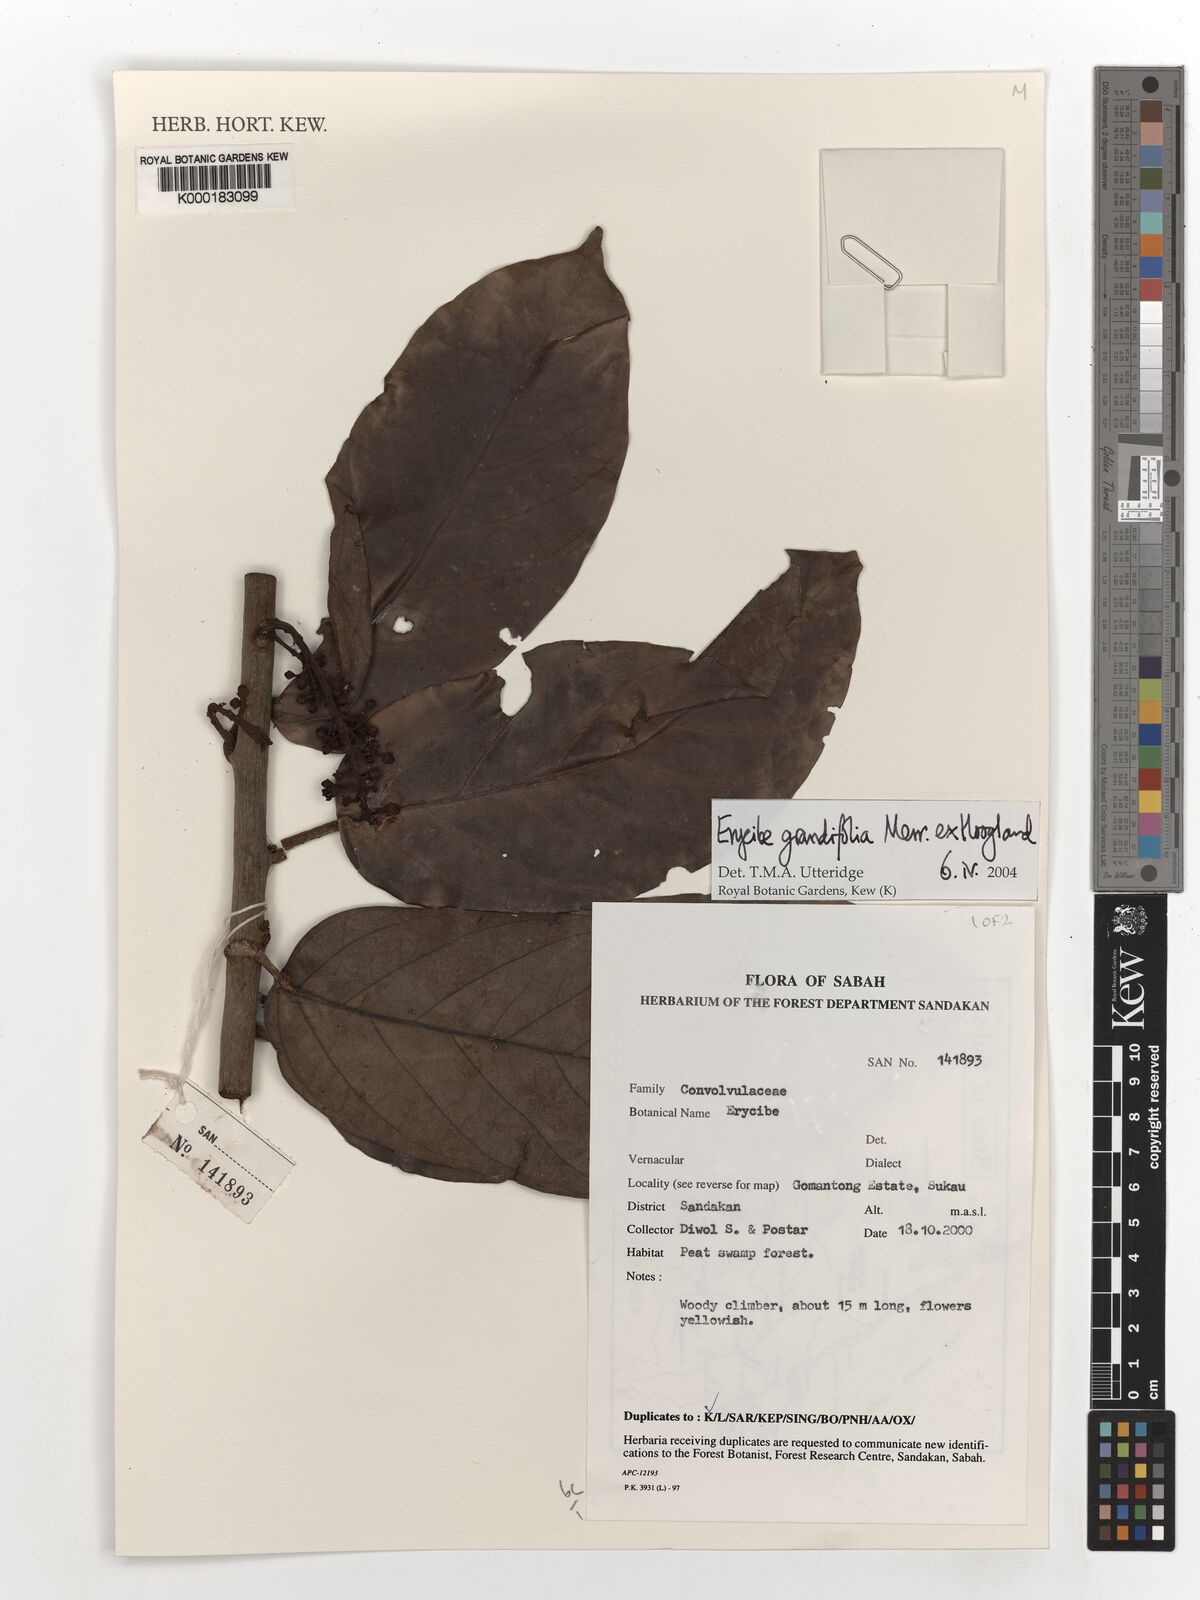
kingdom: Plantae
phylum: Tracheophyta
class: Magnoliopsida
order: Solanales
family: Convolvulaceae
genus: Erycibe
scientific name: Erycibe
